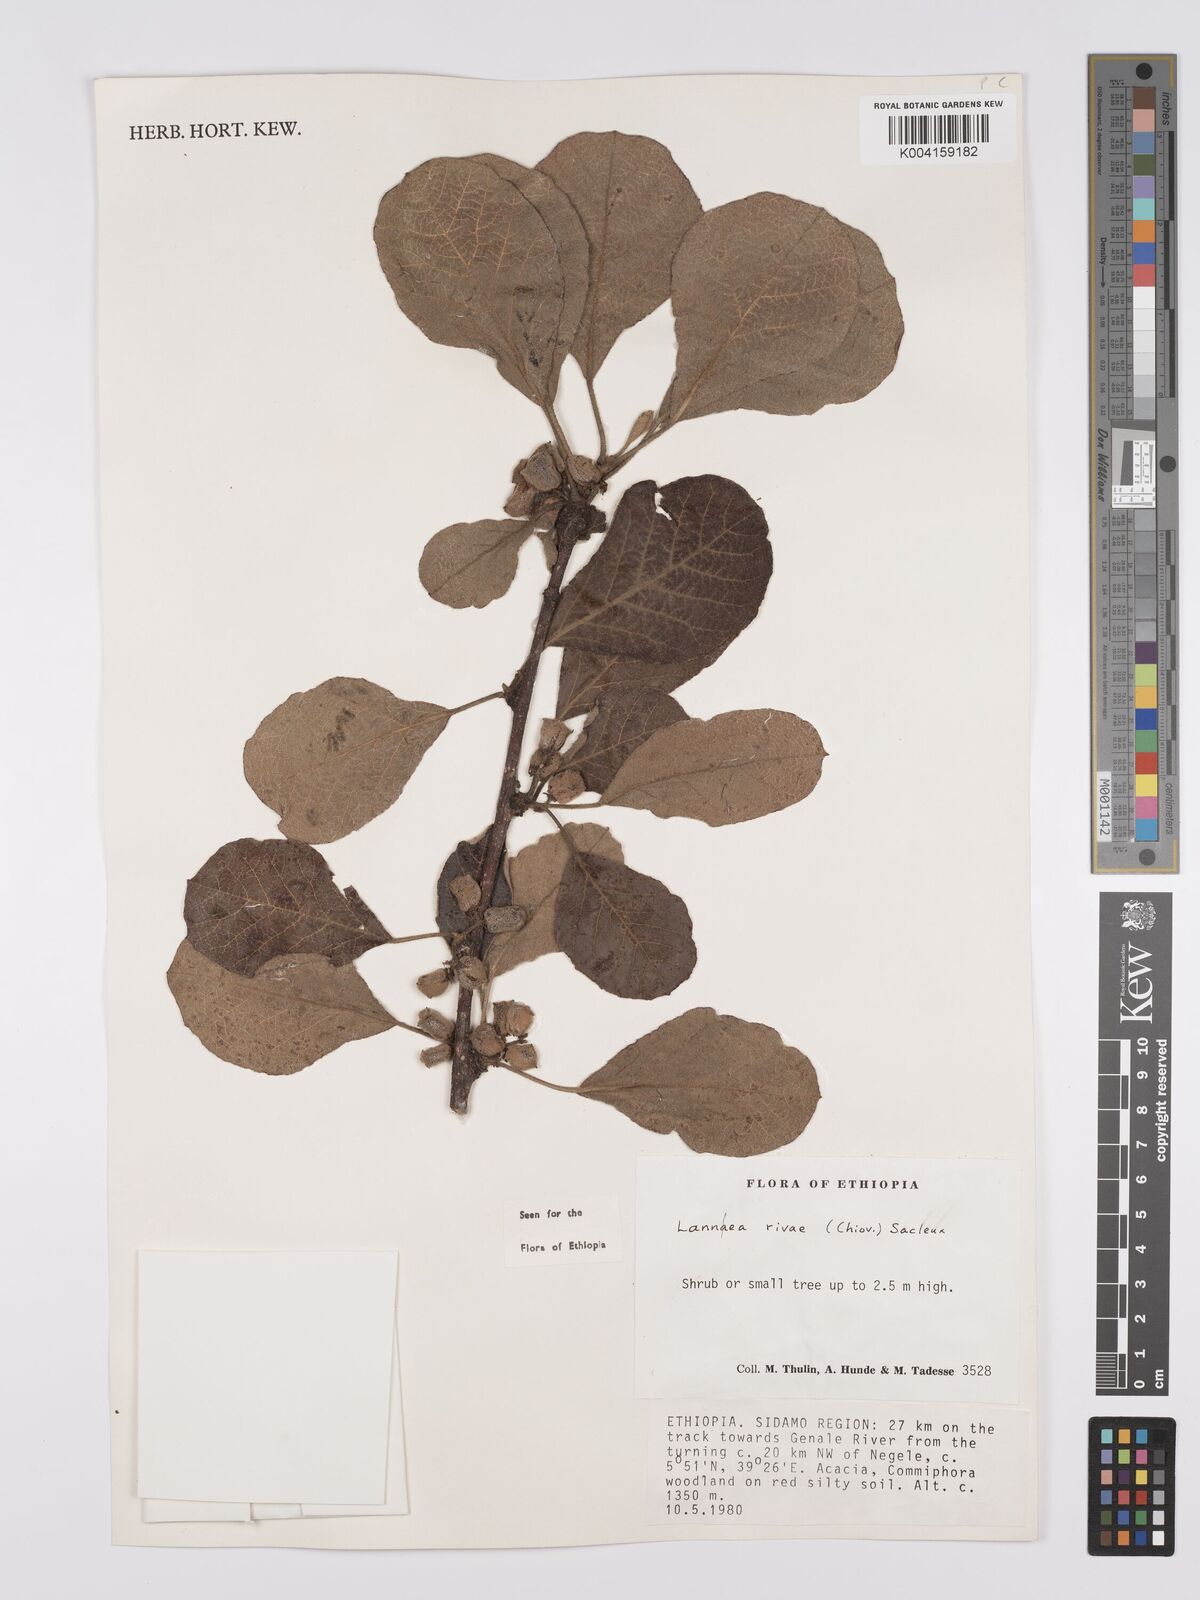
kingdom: Plantae
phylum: Tracheophyta
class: Magnoliopsida
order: Sapindales
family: Anacardiaceae
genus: Lannea
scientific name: Lannea rivae
